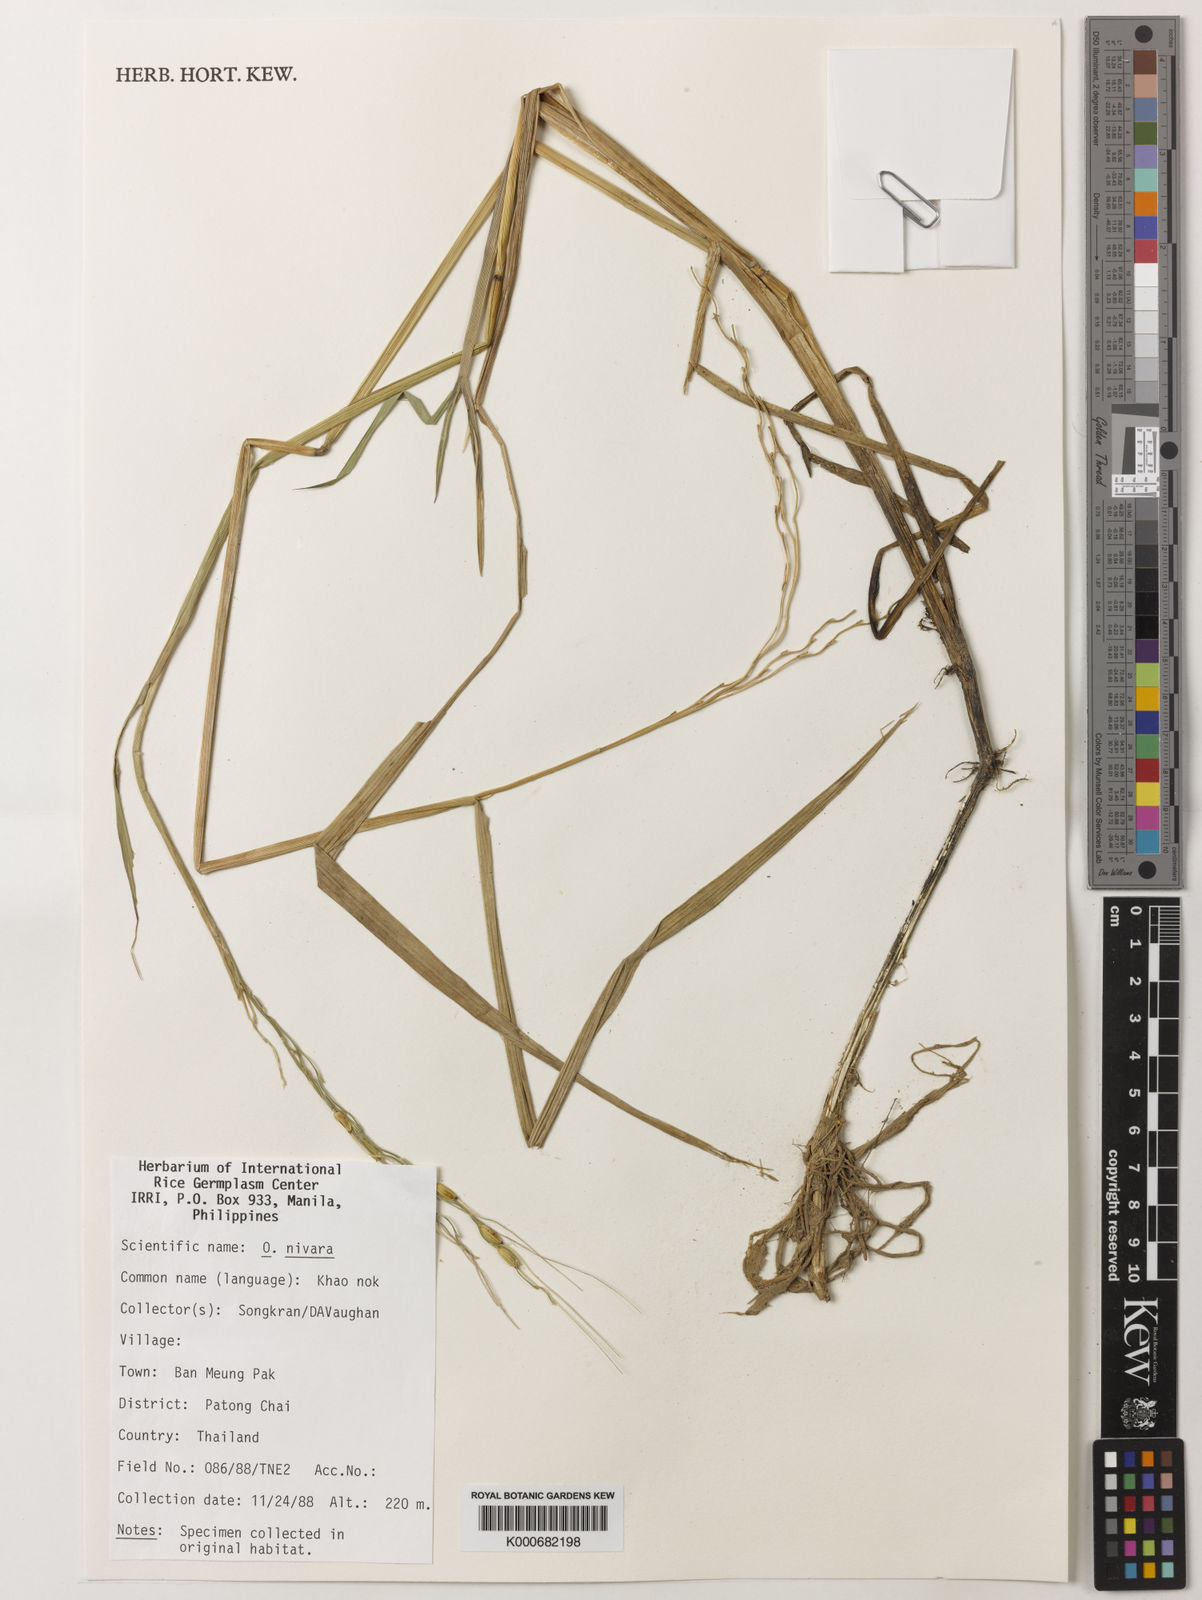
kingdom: Plantae
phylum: Tracheophyta
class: Liliopsida
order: Poales
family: Poaceae
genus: Oryza
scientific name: Oryza rufipogon
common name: Red rice
